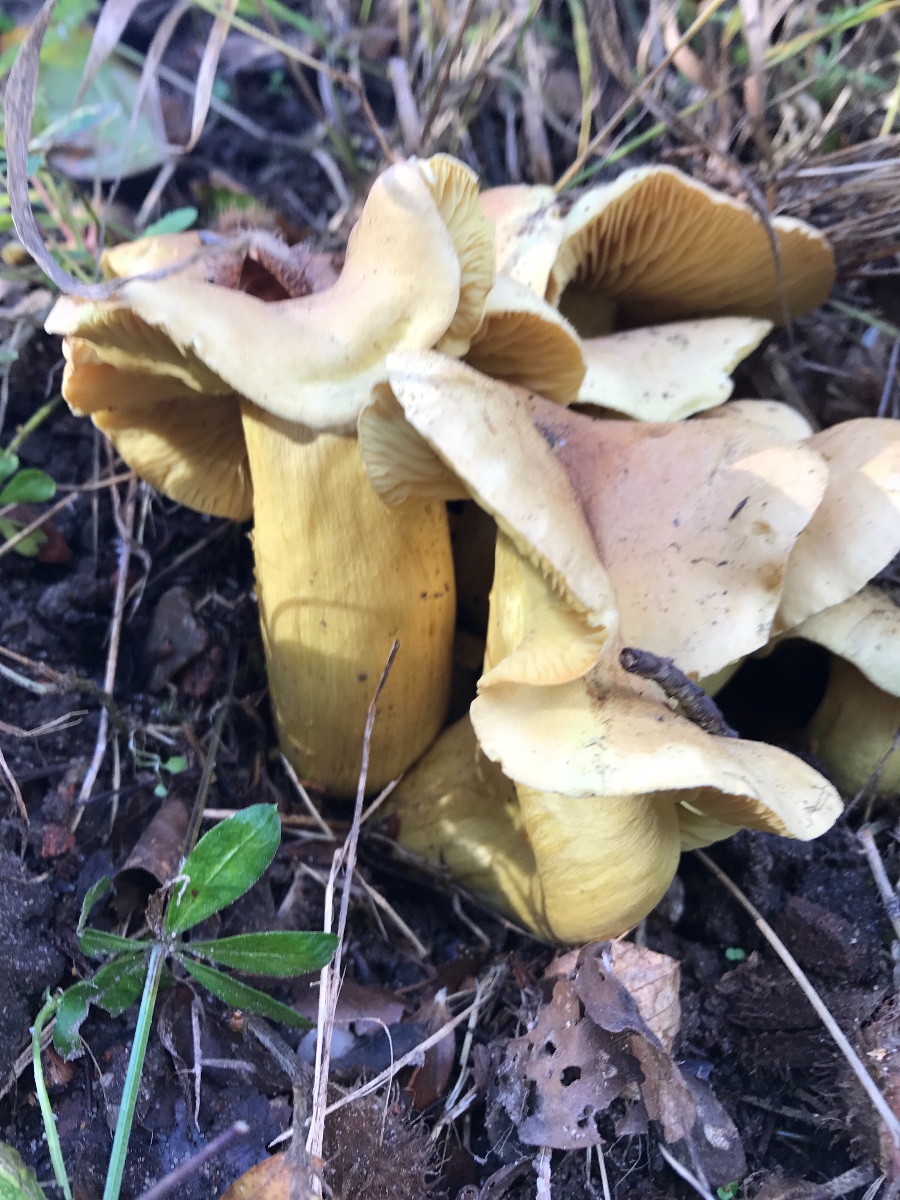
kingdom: Fungi
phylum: Basidiomycota
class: Agaricomycetes
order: Agaricales
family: Tricholomataceae
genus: Tricholoma
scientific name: Tricholoma sulphureum
